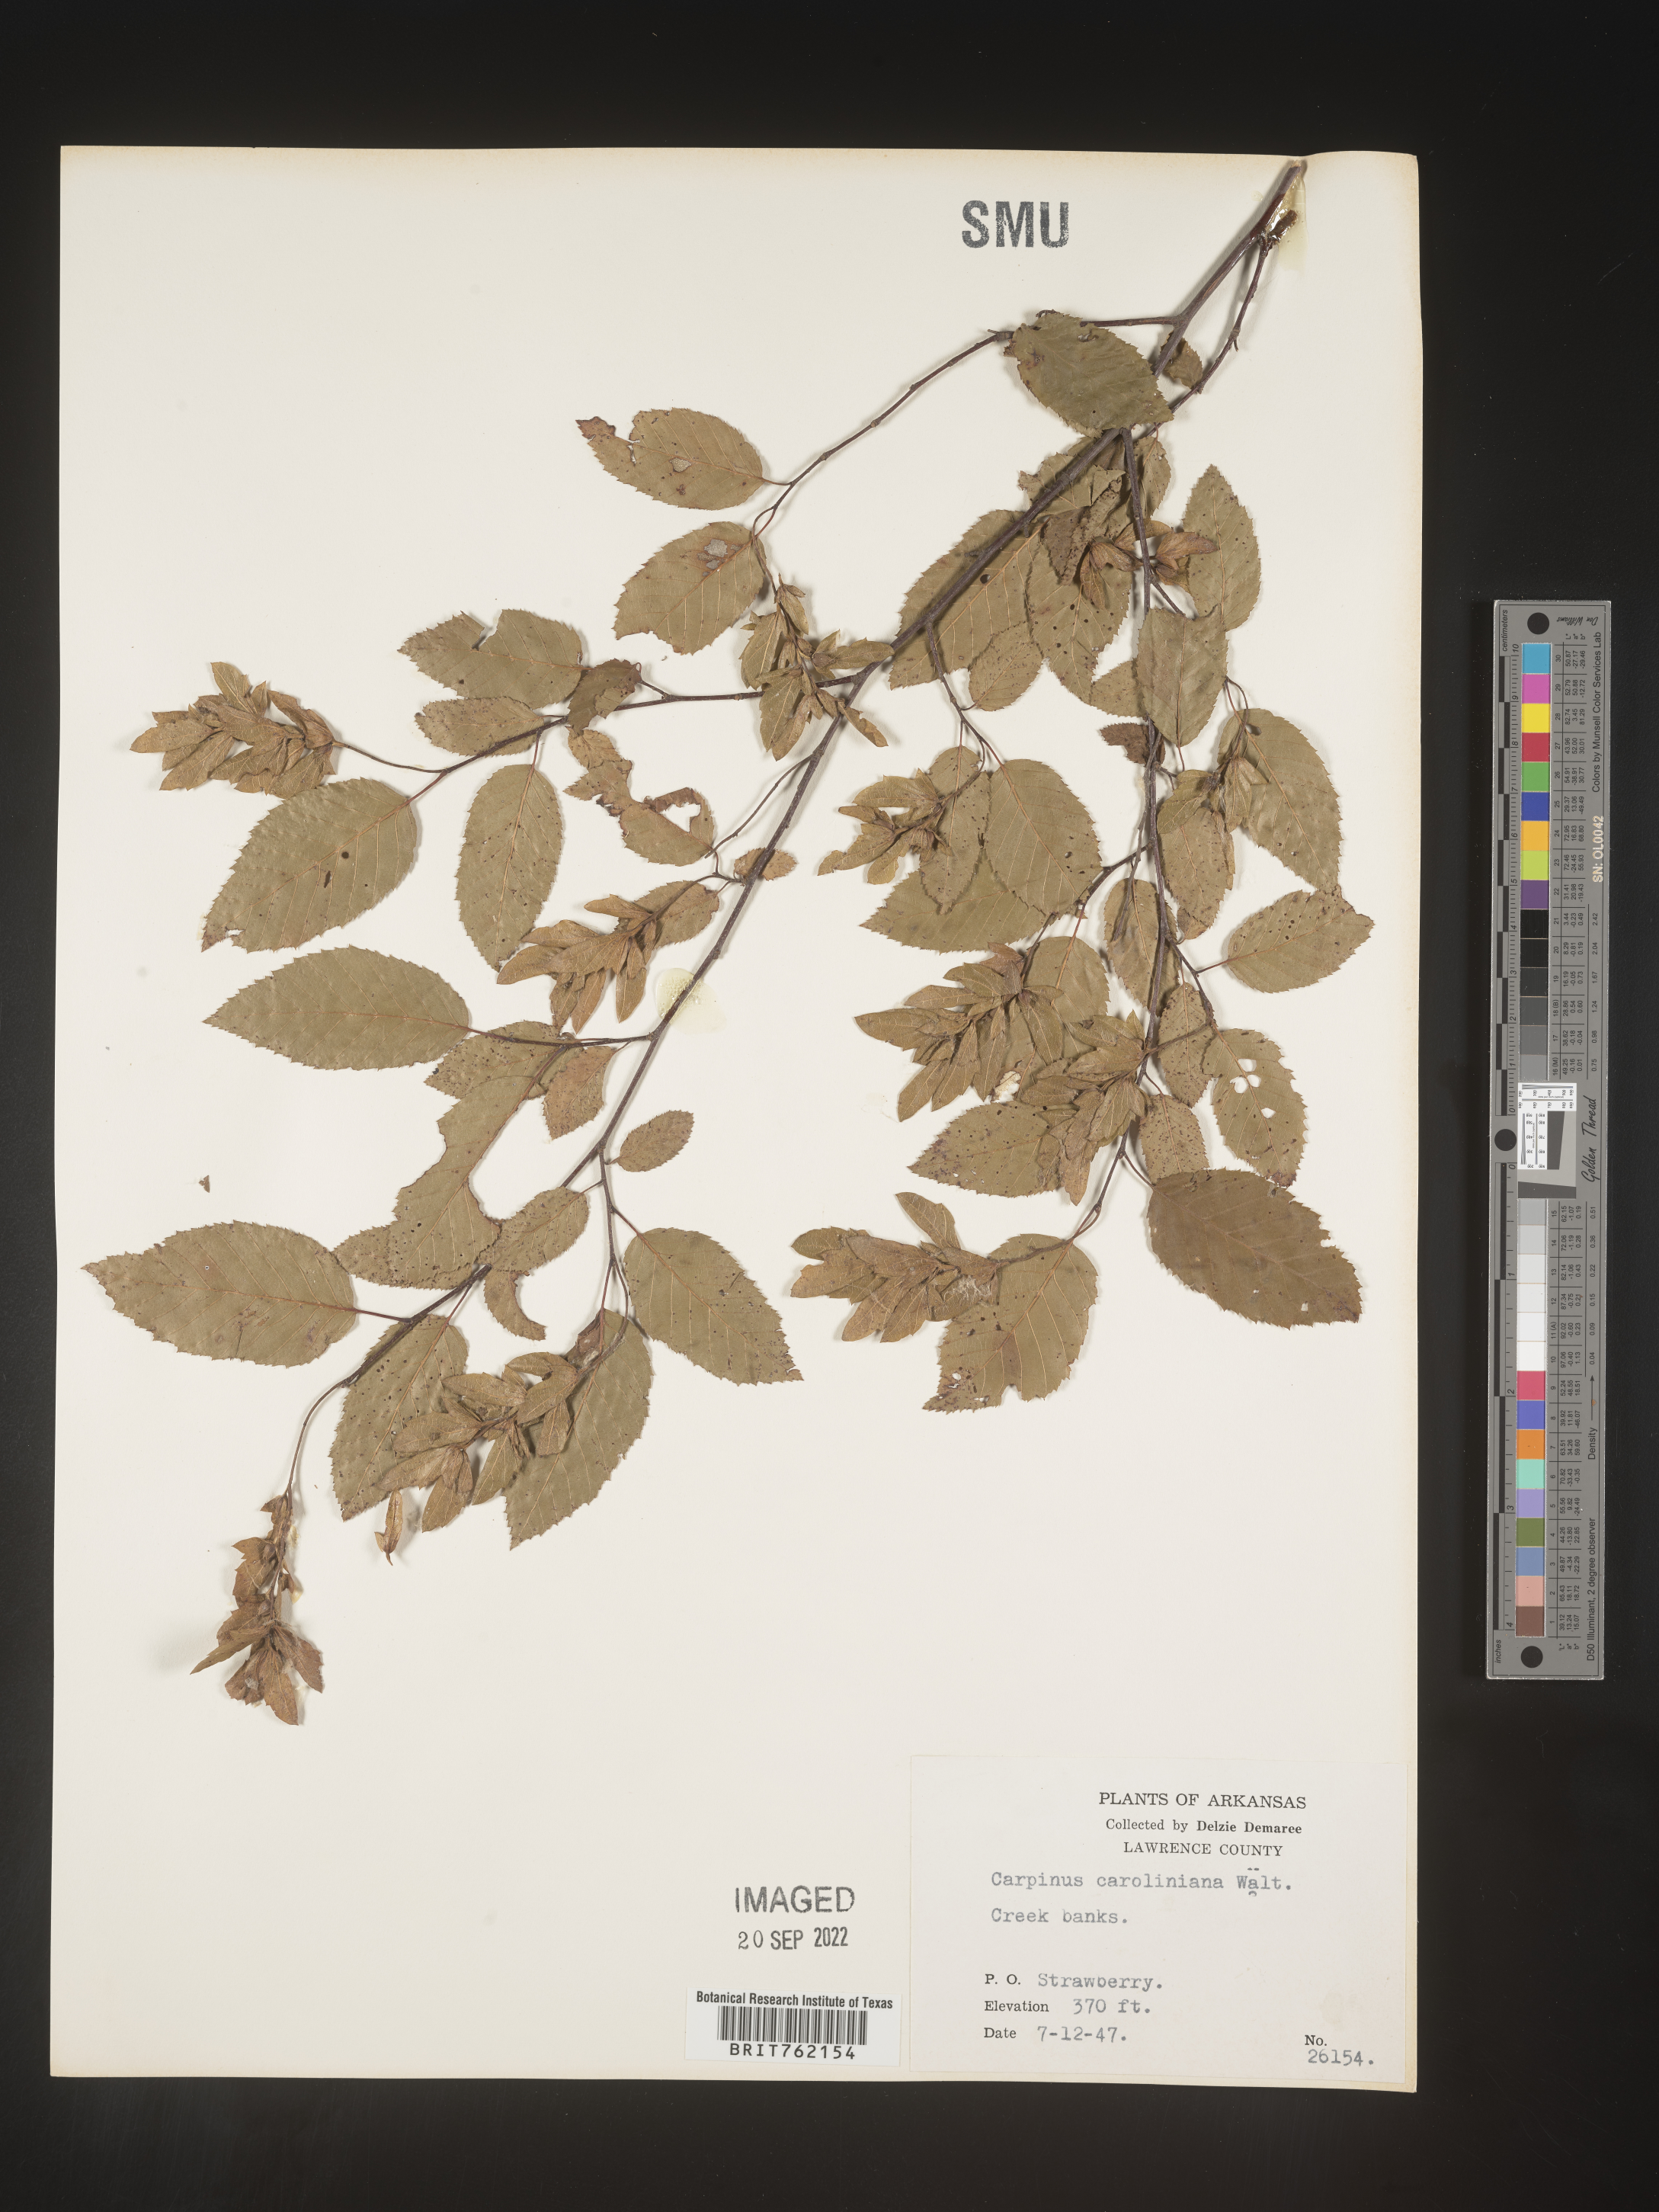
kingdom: Plantae
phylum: Tracheophyta
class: Magnoliopsida
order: Fagales
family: Betulaceae
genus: Carpinus
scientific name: Carpinus caroliniana
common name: American hornbeam
